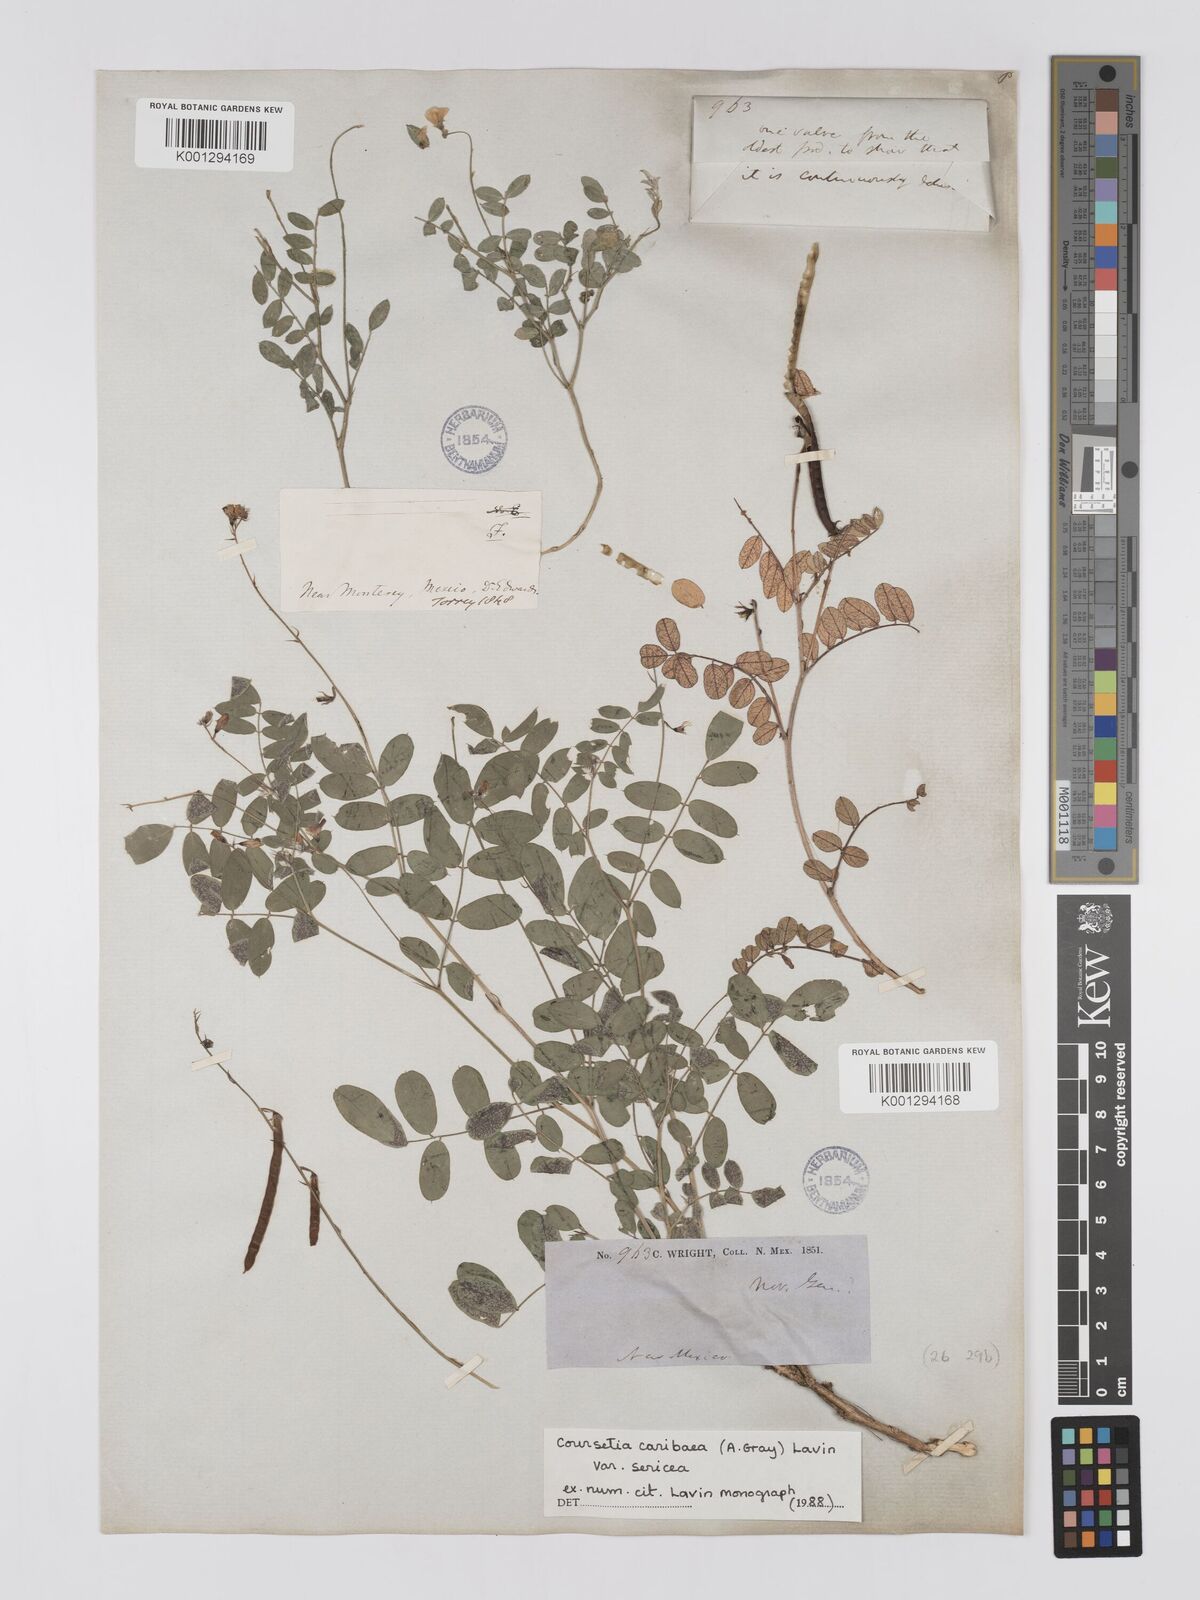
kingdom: Plantae
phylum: Tracheophyta
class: Magnoliopsida
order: Fabales
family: Fabaceae
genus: Coursetia
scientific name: Coursetia caribaea
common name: Anil falso
